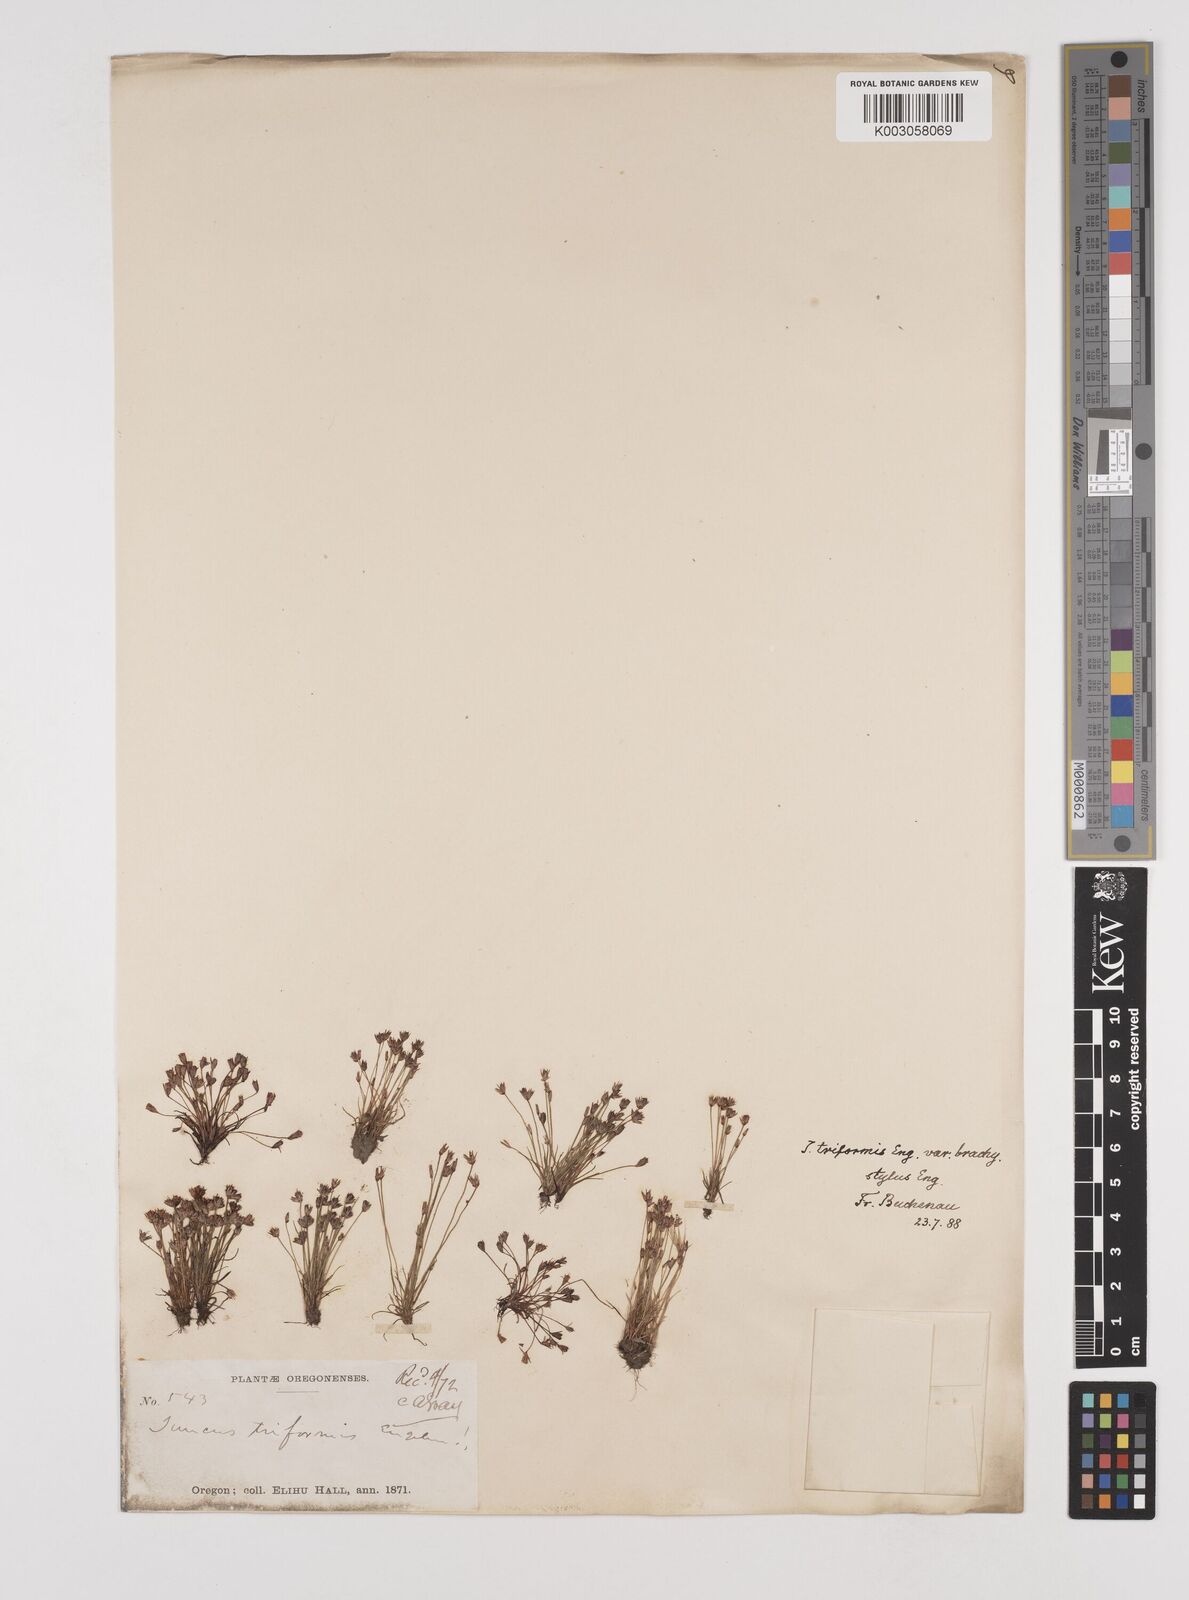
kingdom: Plantae
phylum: Tracheophyta
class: Liliopsida
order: Poales
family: Juncaceae
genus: Juncus
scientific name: Juncus triformis
